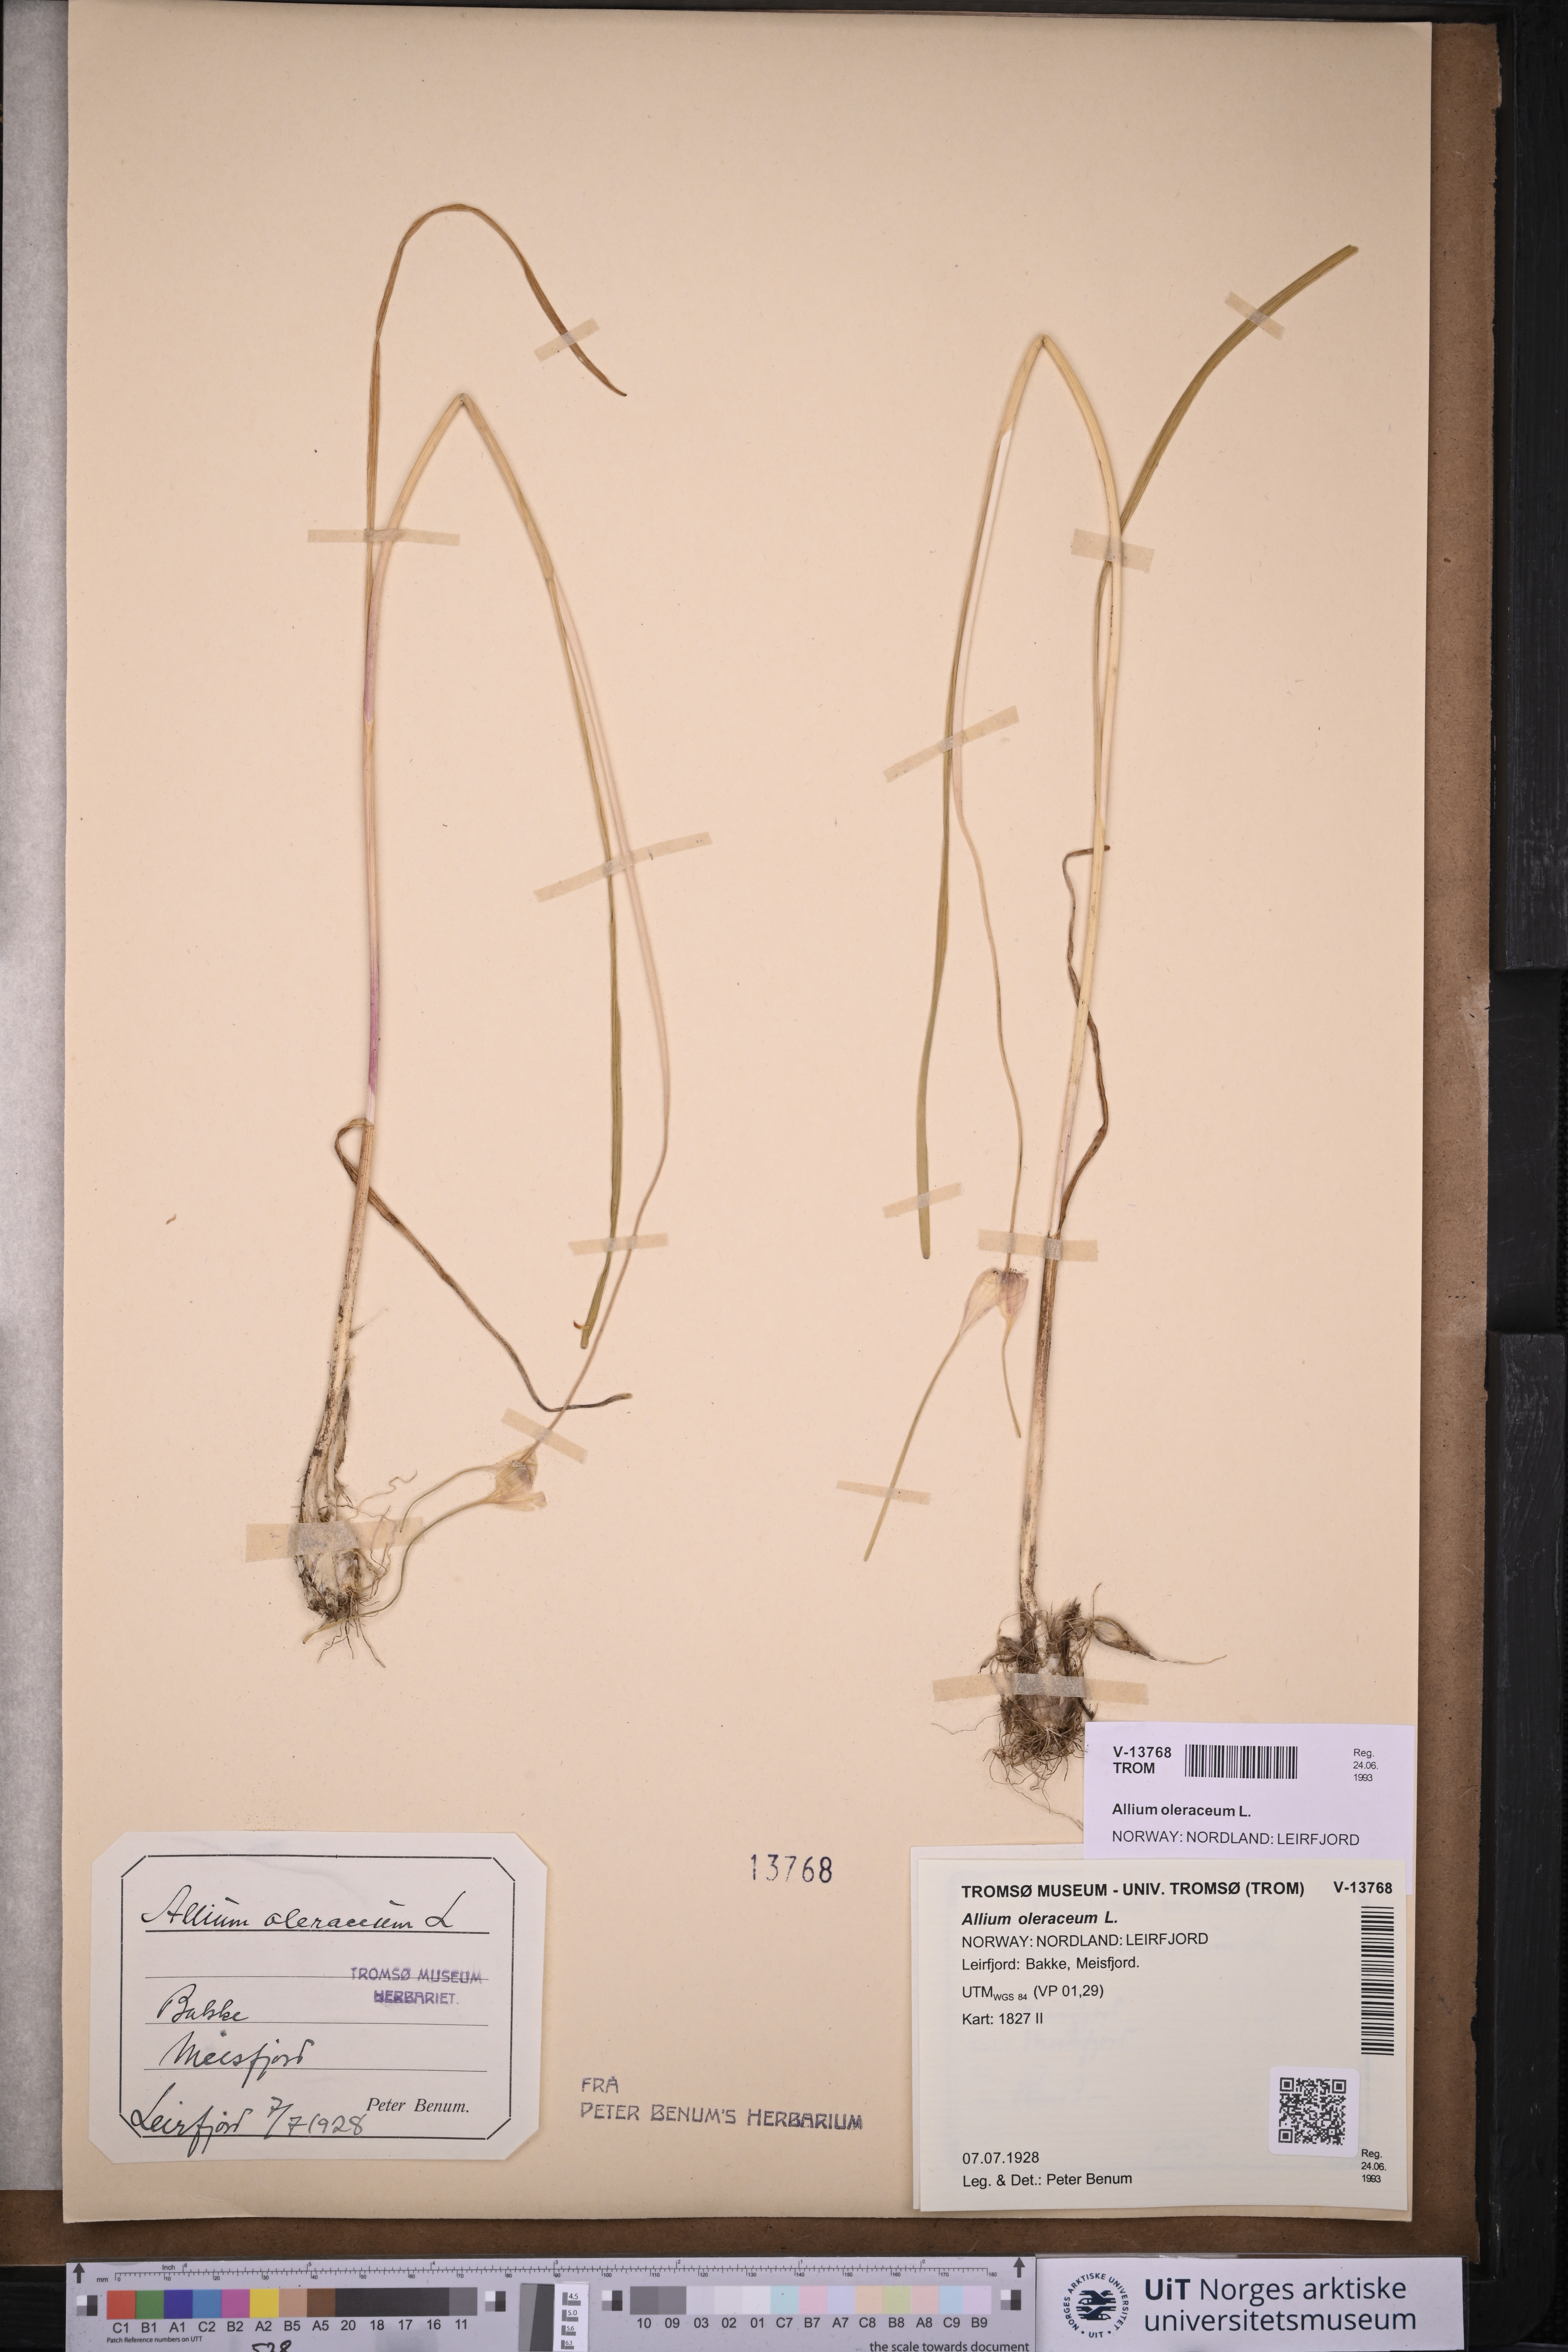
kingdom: Plantae
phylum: Tracheophyta
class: Liliopsida
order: Asparagales
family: Amaryllidaceae
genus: Allium
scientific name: Allium oleraceum
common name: Field garlic
